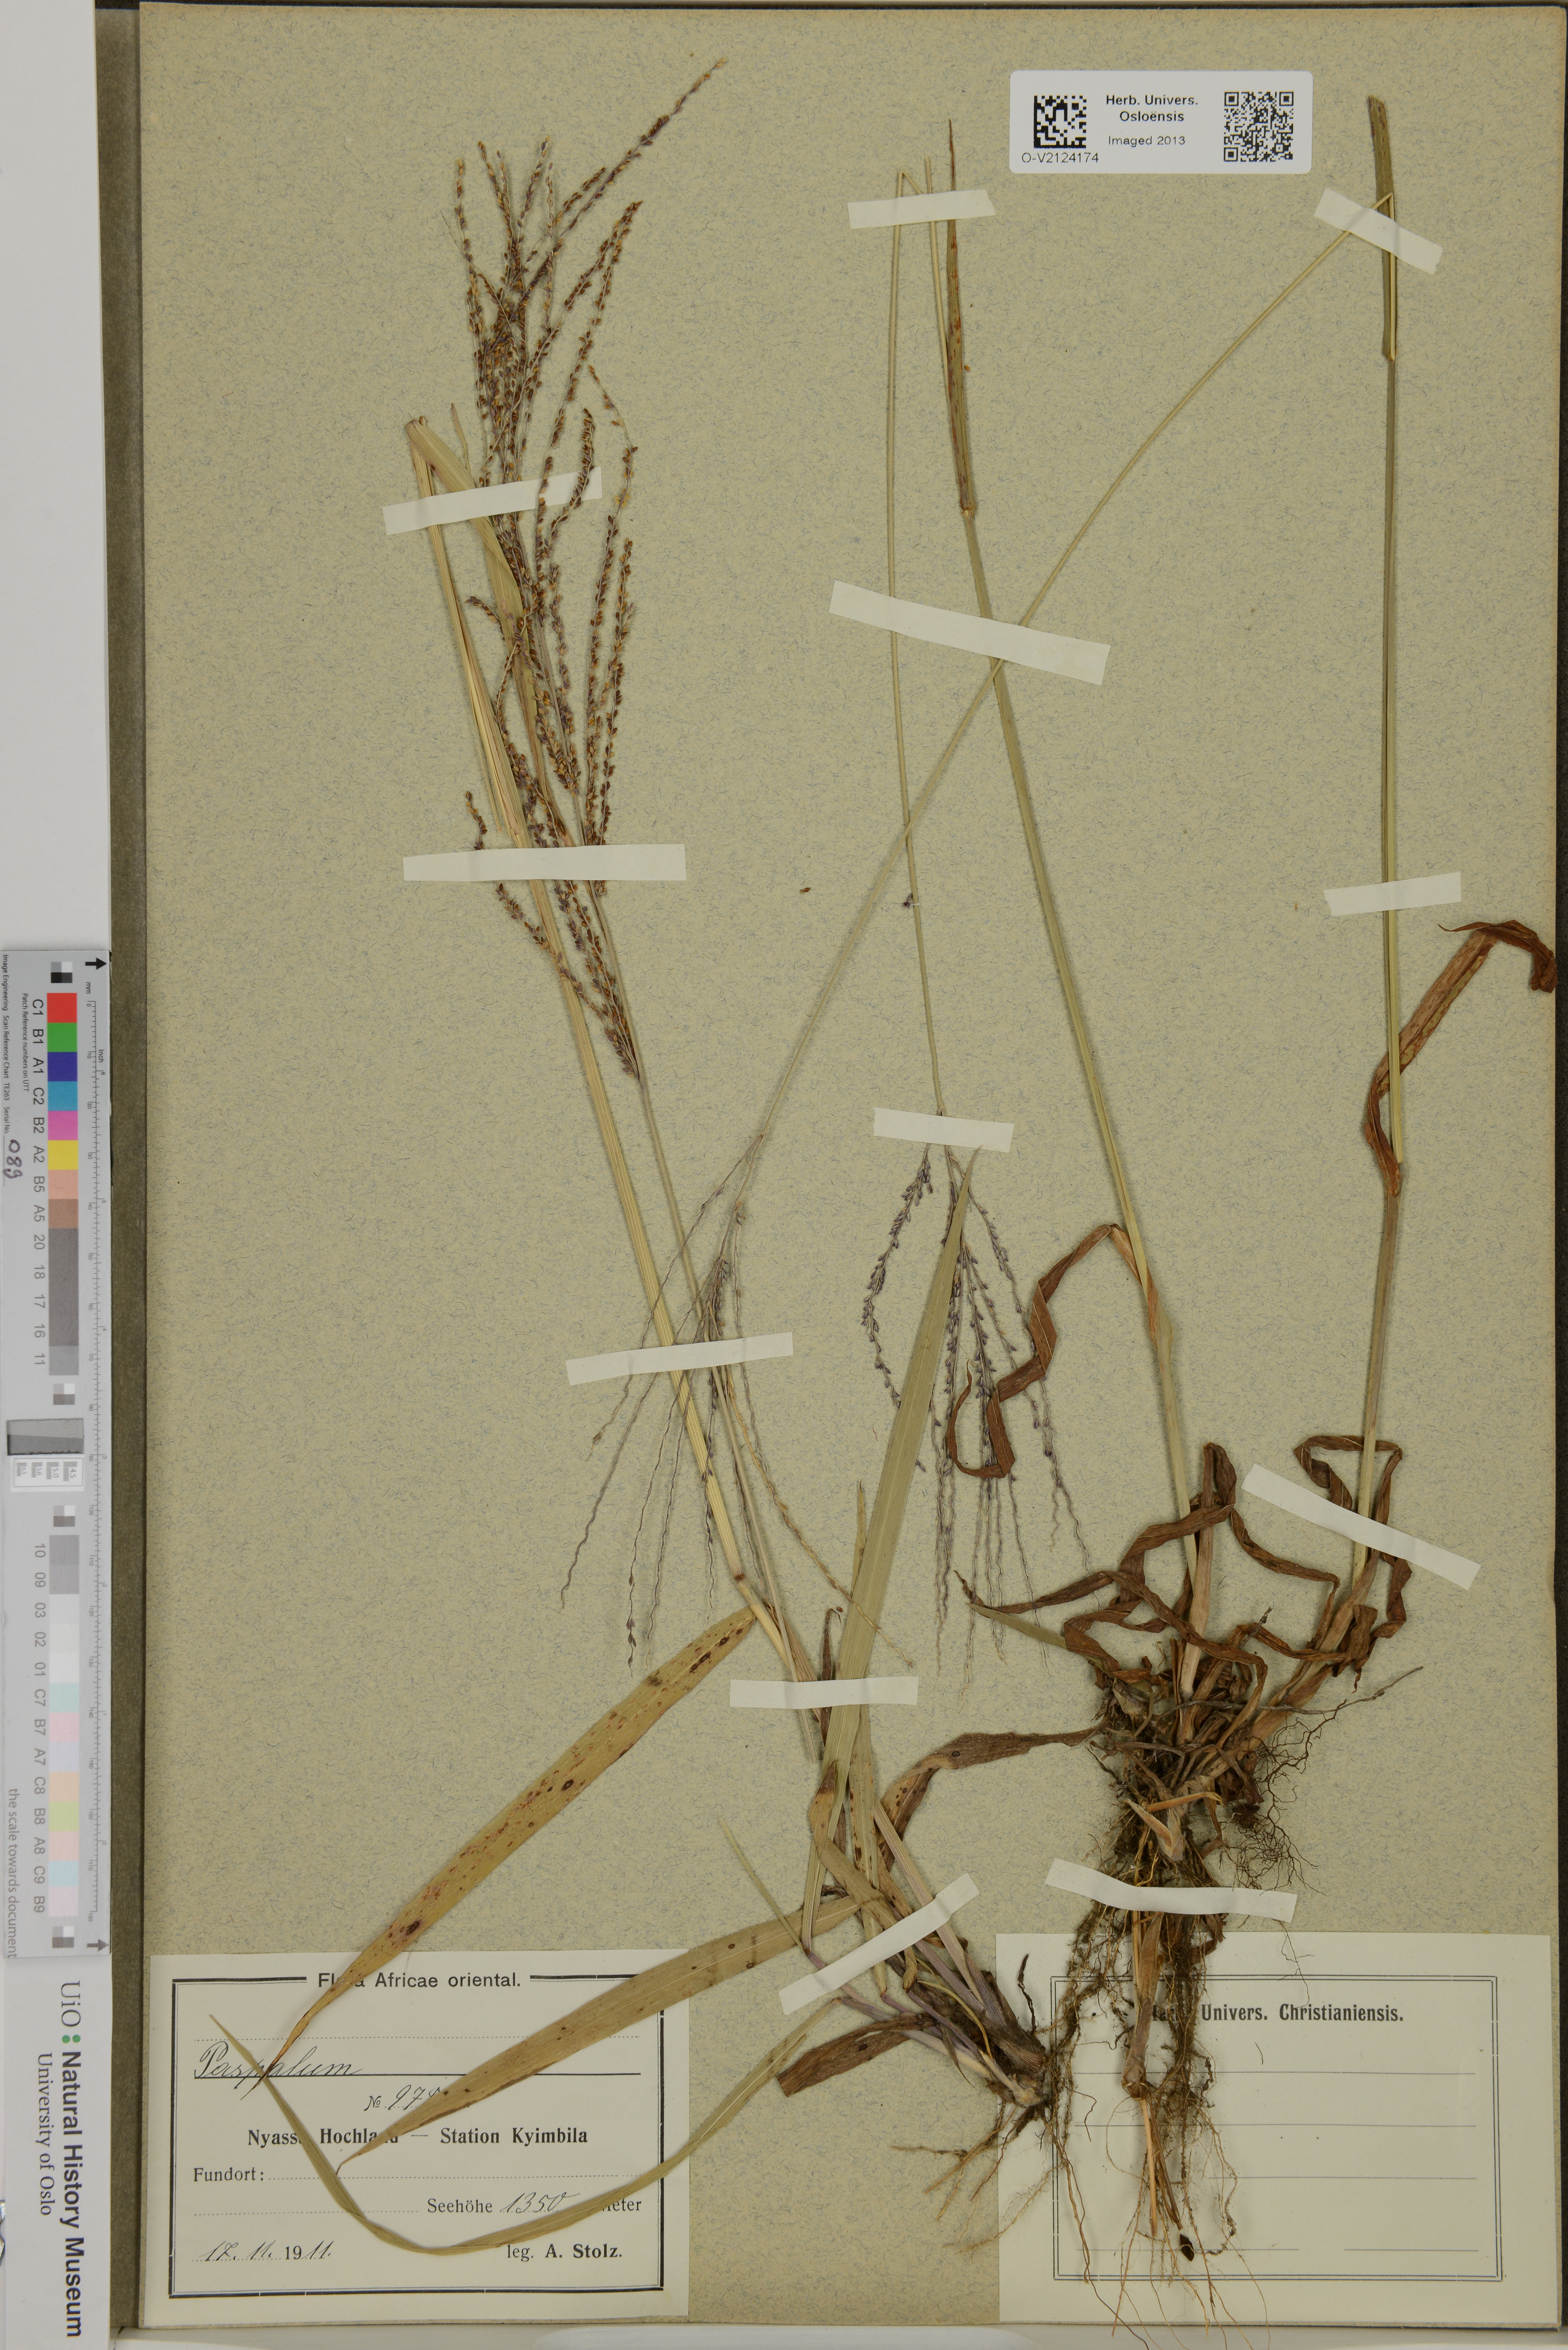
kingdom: Plantae
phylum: Tracheophyta
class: Liliopsida
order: Poales
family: Poaceae
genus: Paspalum
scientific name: Paspalum
